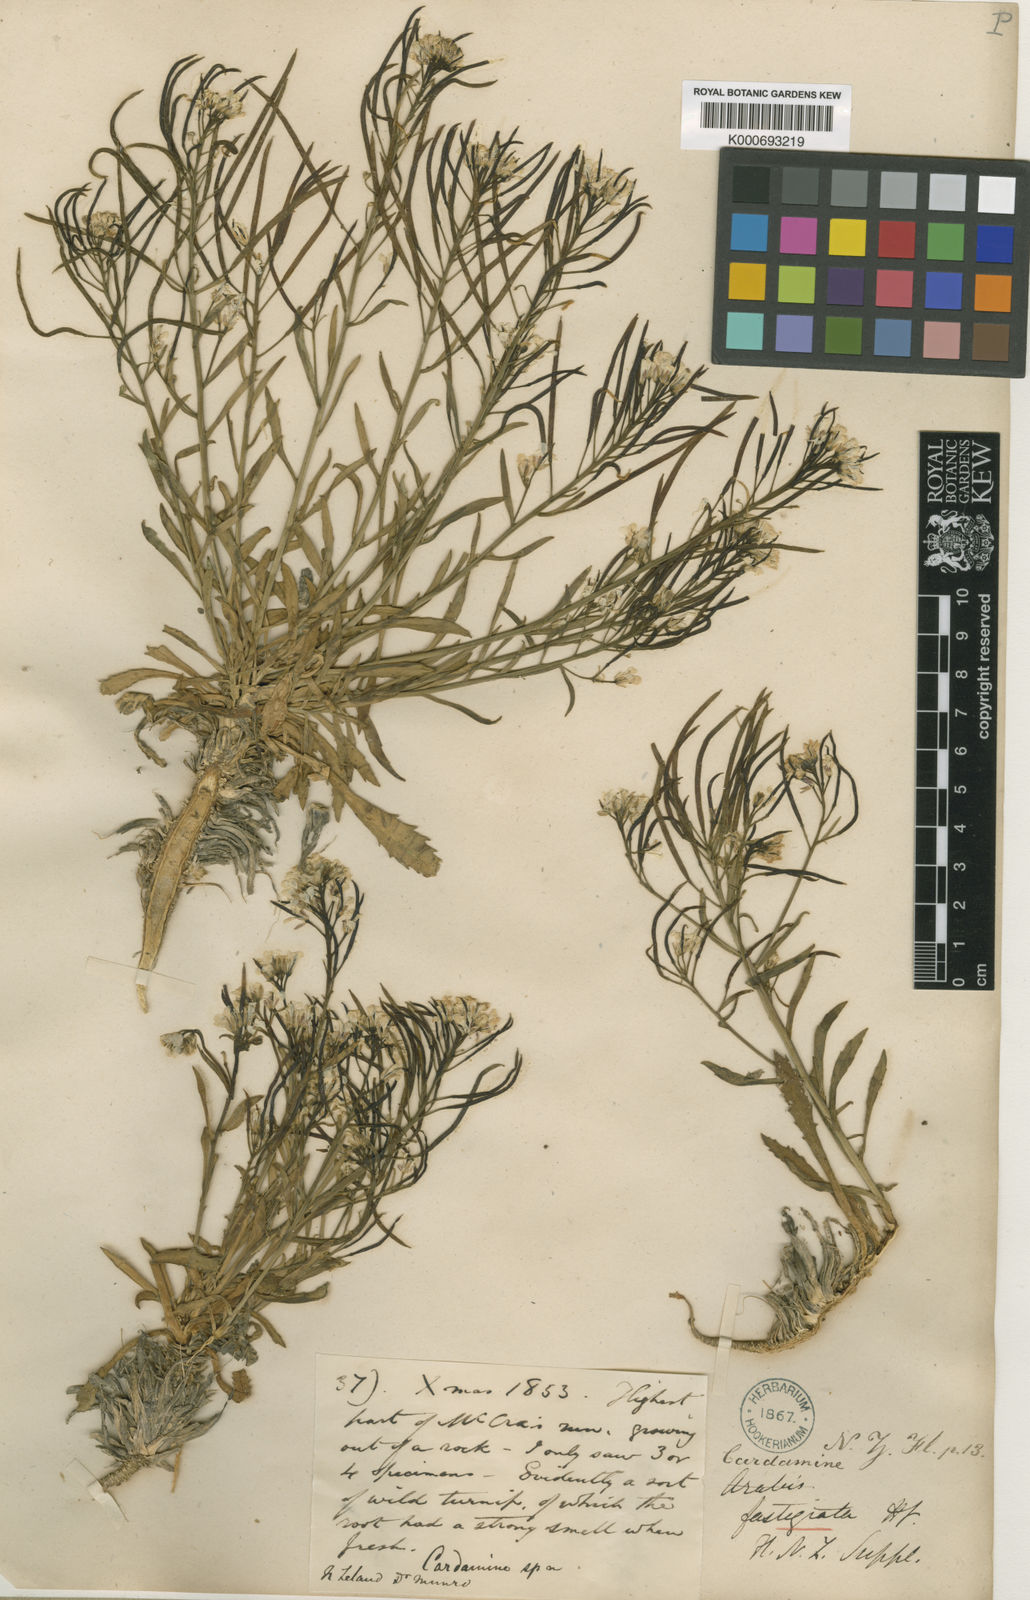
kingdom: Plantae
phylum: Tracheophyta
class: Magnoliopsida
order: Brassicales
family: Brassicaceae
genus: Pachycladon
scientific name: Pachycladon fastigiatum
